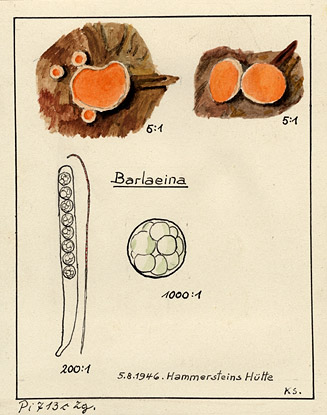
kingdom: Fungi
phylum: Ascomycota
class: Pezizomycetes
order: Pezizales
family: Pulvinulaceae
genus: Pulvinula
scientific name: Pulvinula convexella
